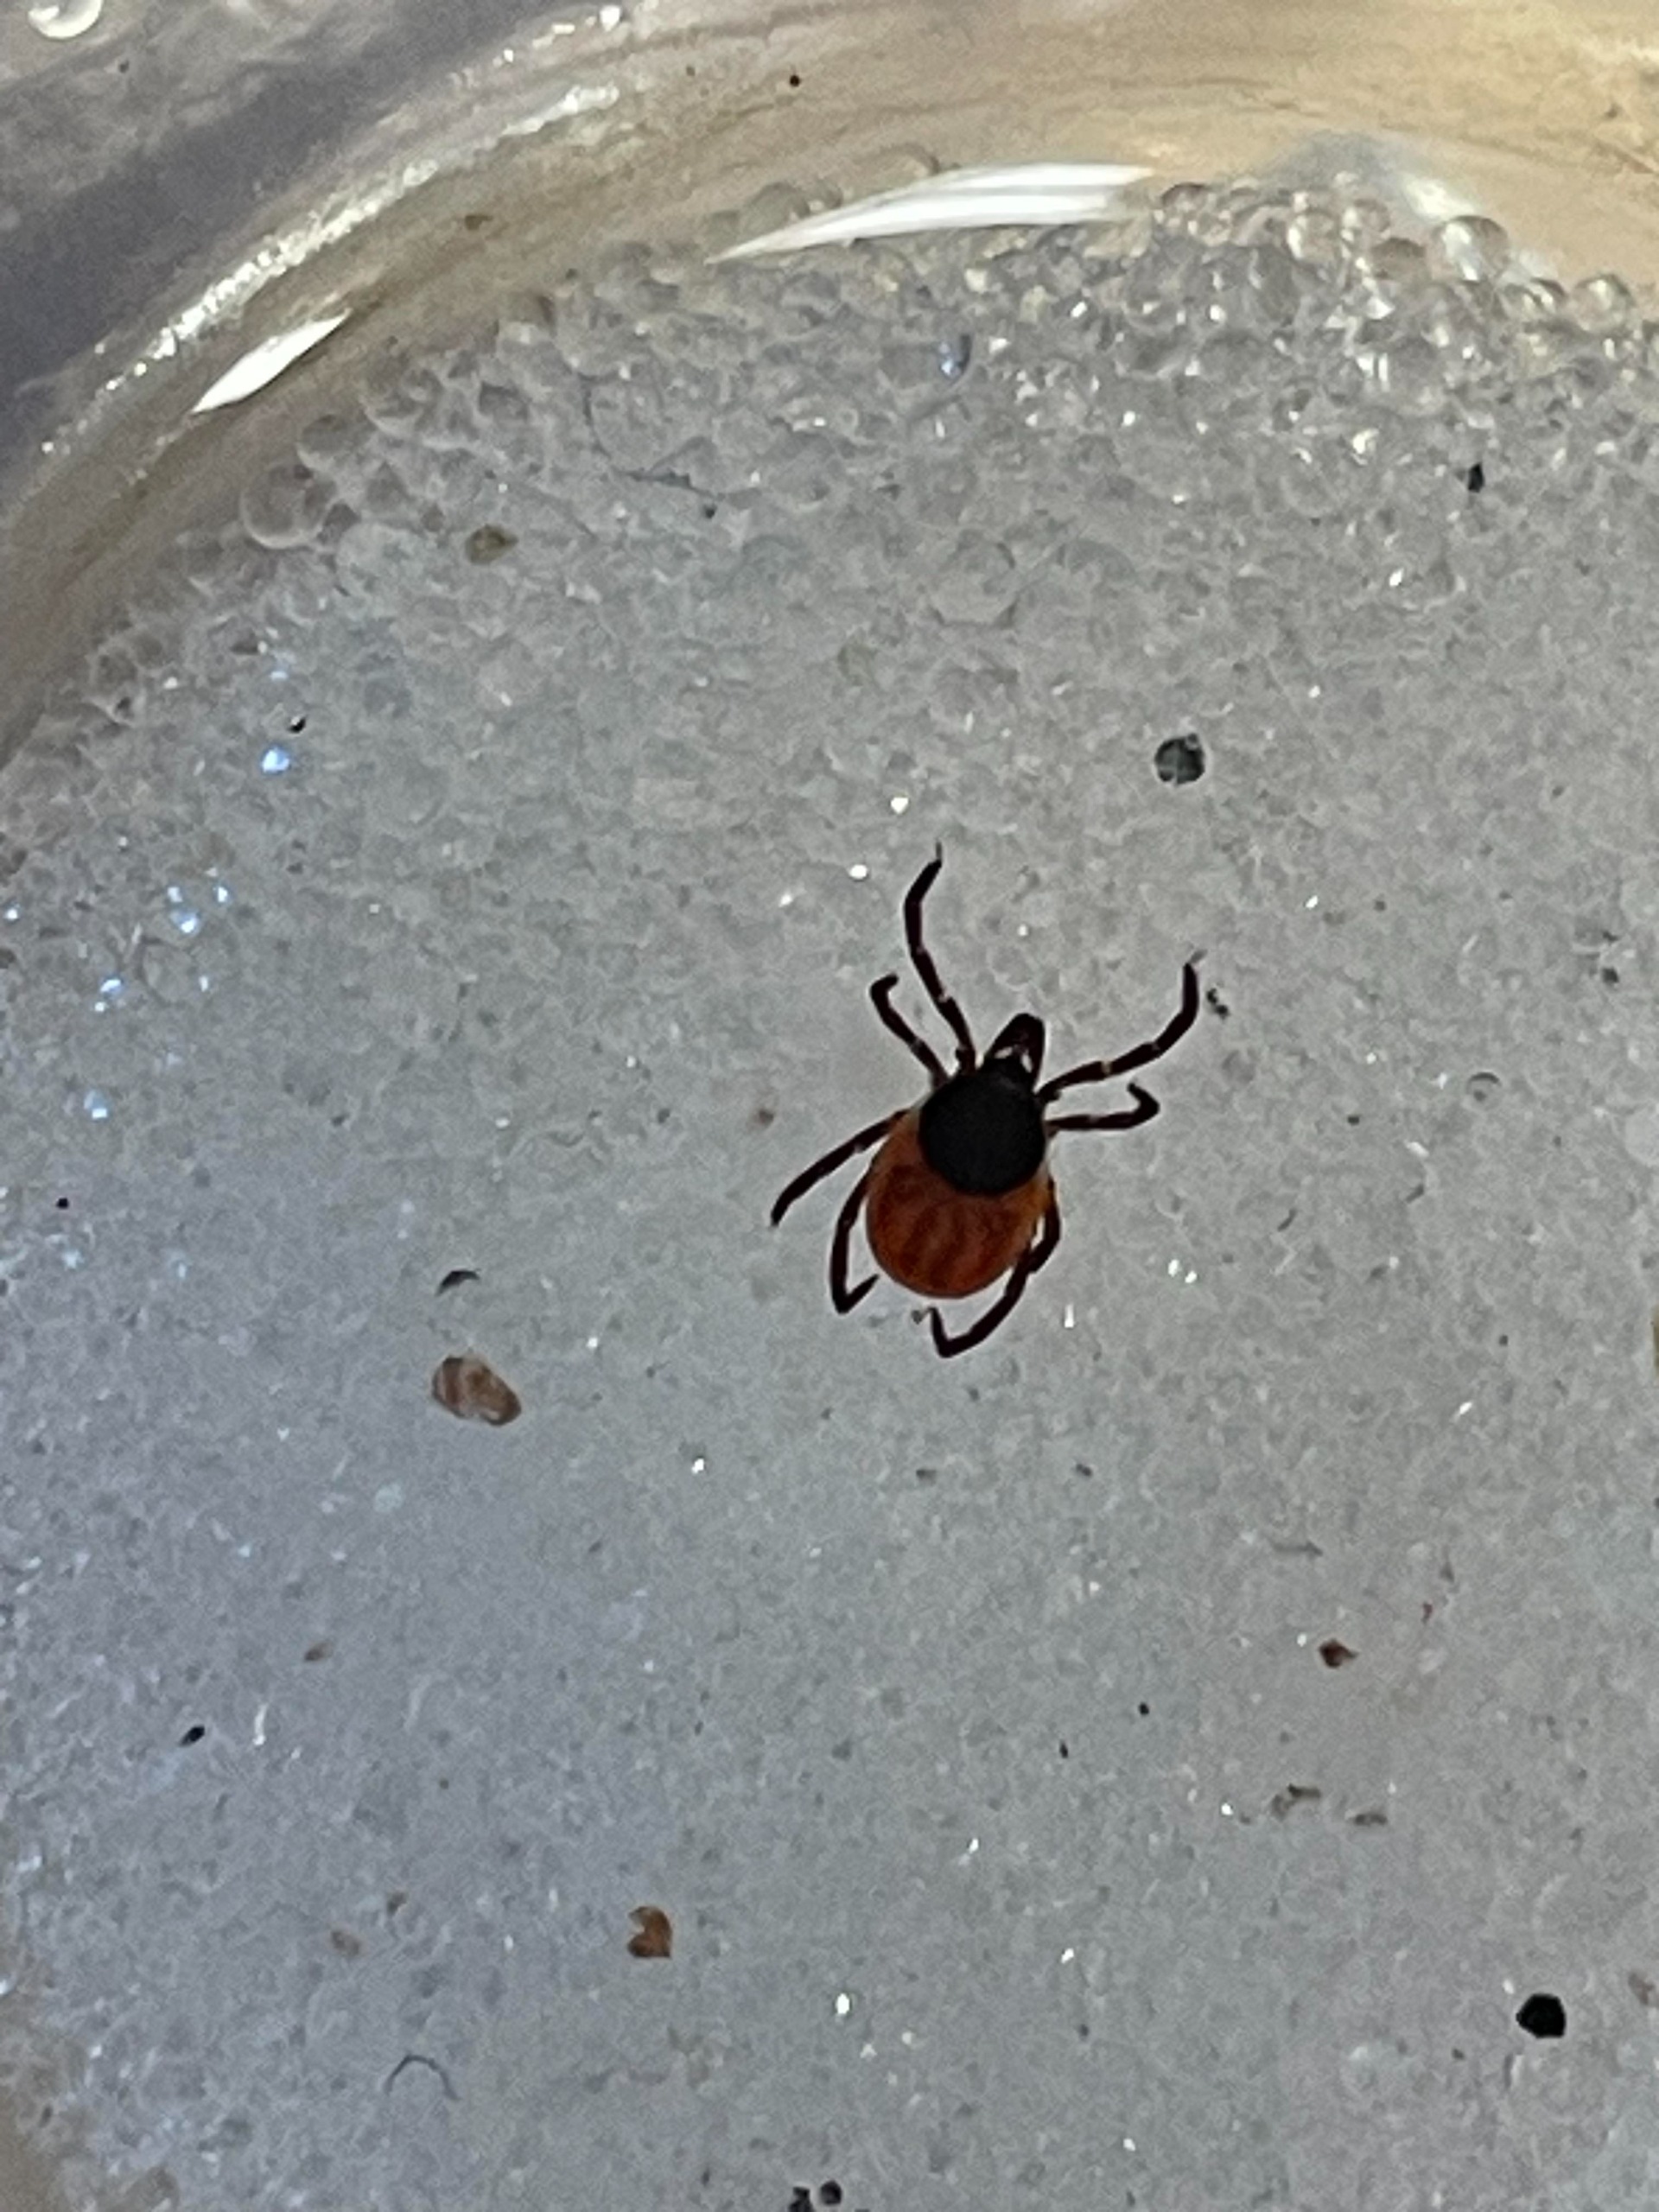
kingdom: Animalia
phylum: Arthropoda
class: Arachnida
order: Ixodida
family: Ixodidae
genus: Ixodes
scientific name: Ixodes ricinus
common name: Skovflåt
